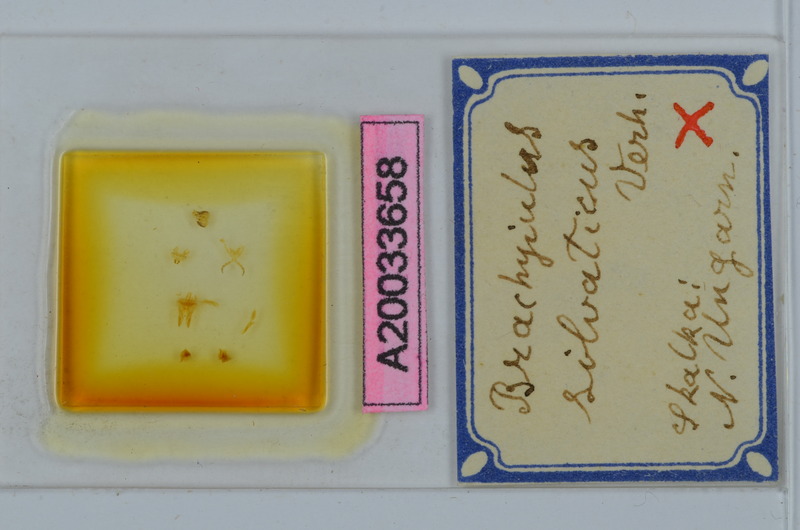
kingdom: Animalia
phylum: Arthropoda
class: Diplopoda
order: Julida
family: Julidae
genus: Megaphyllum
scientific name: Megaphyllum silvaticum
